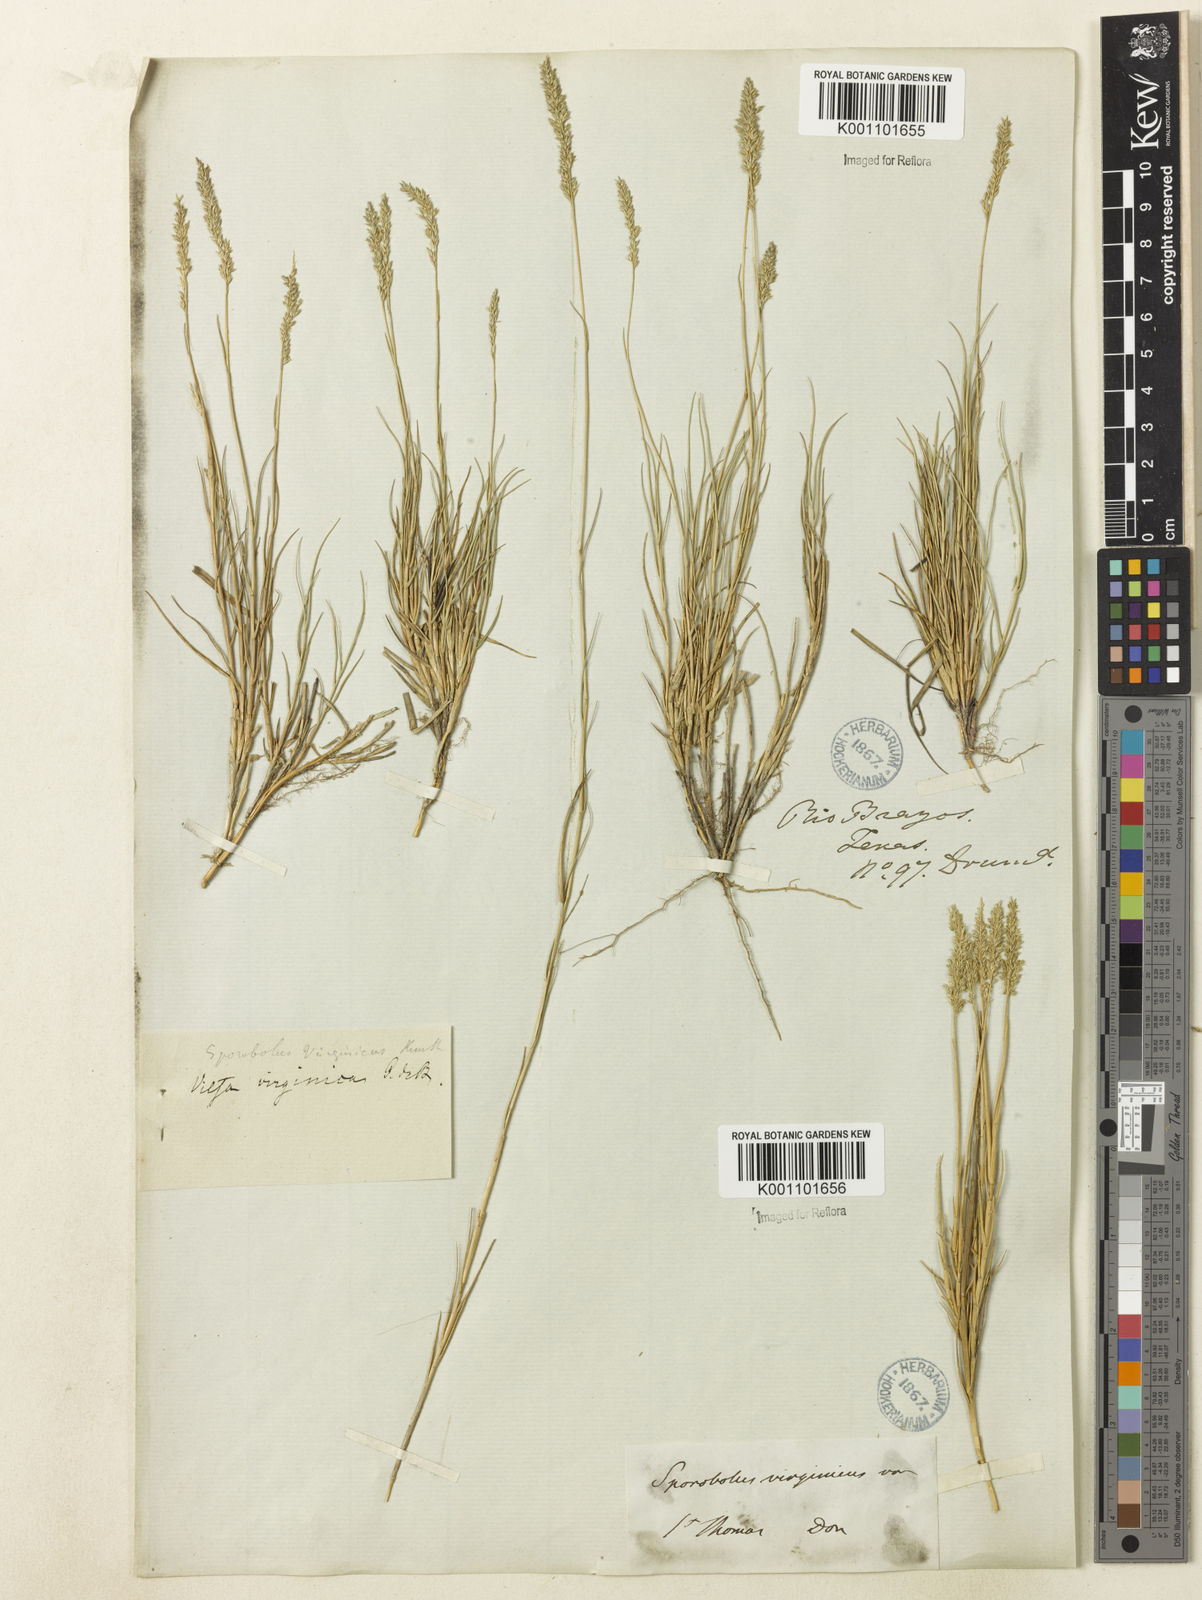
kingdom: Plantae
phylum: Tracheophyta
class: Liliopsida
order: Poales
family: Poaceae
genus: Sporobolus
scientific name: Sporobolus virginicus
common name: Beach dropseed
